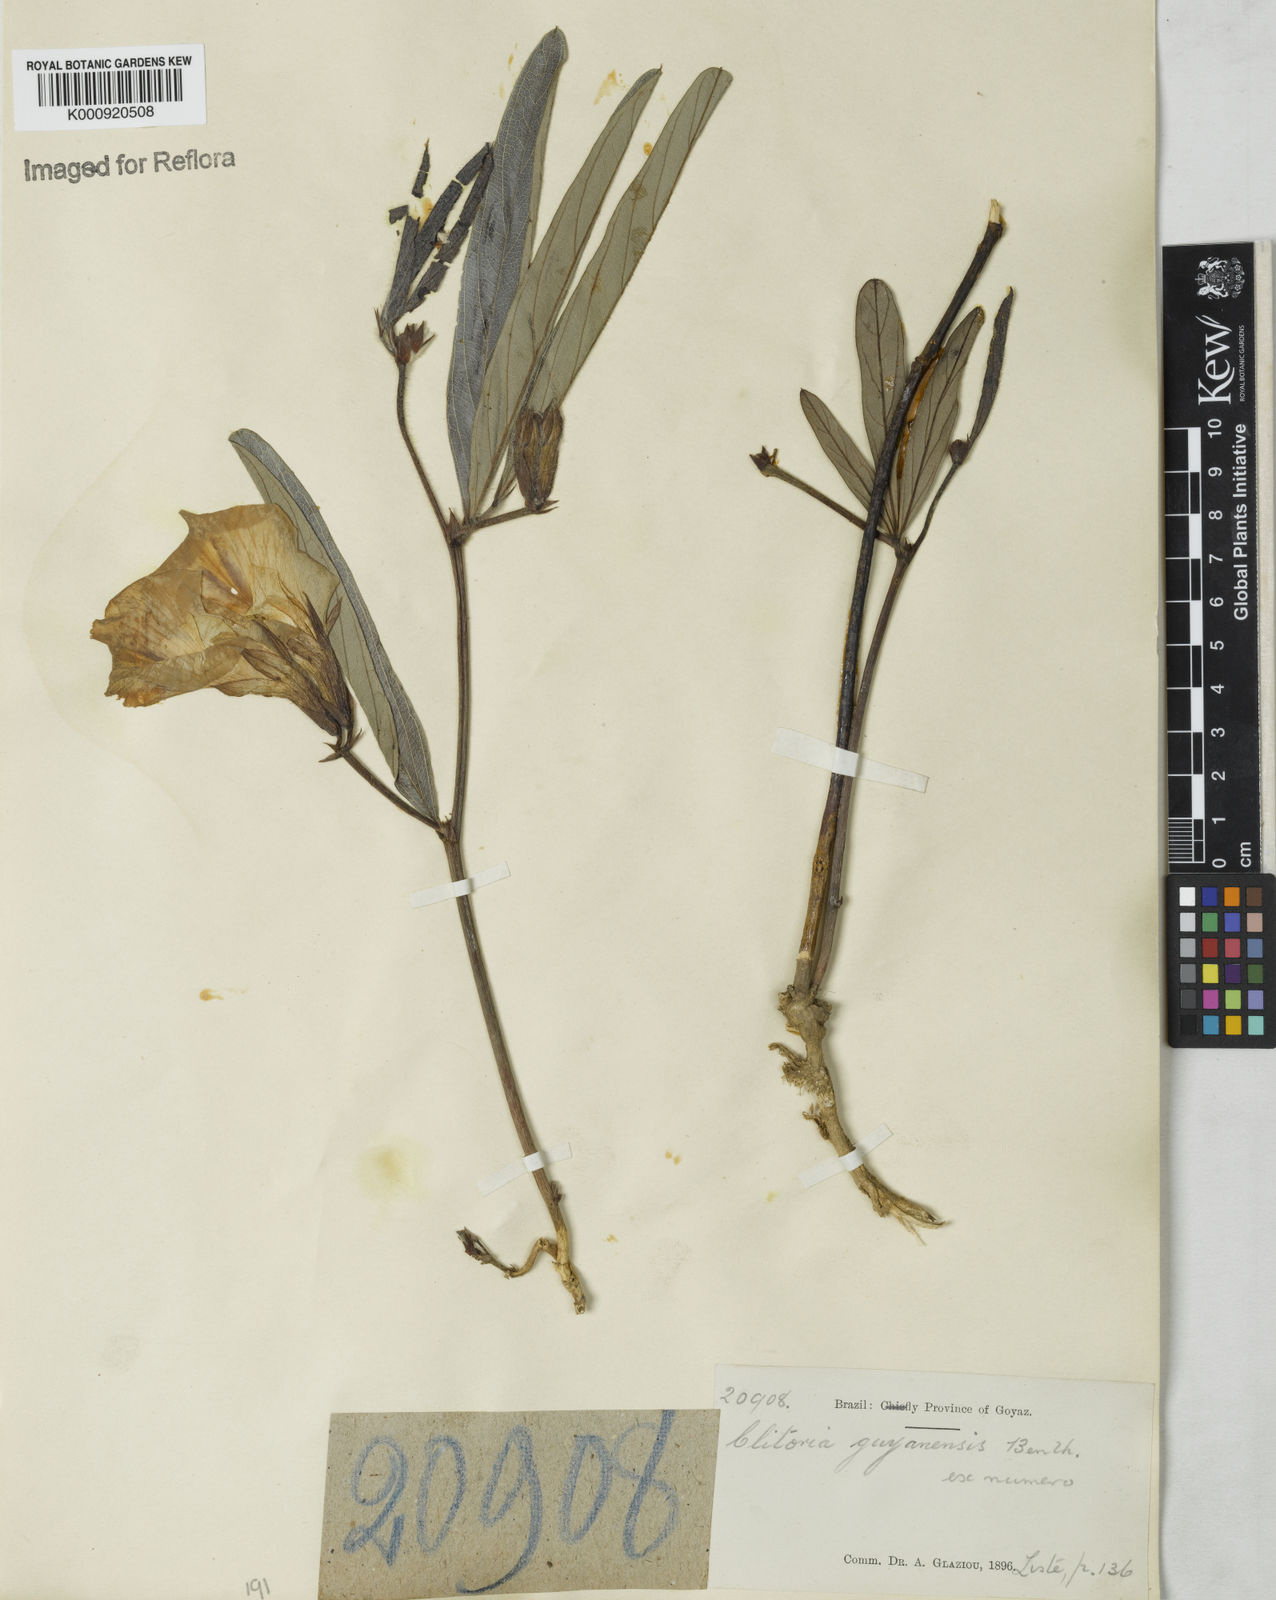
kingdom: Plantae
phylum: Tracheophyta
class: Magnoliopsida
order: Fabales
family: Fabaceae
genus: Clitoria
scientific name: Clitoria guianensis
